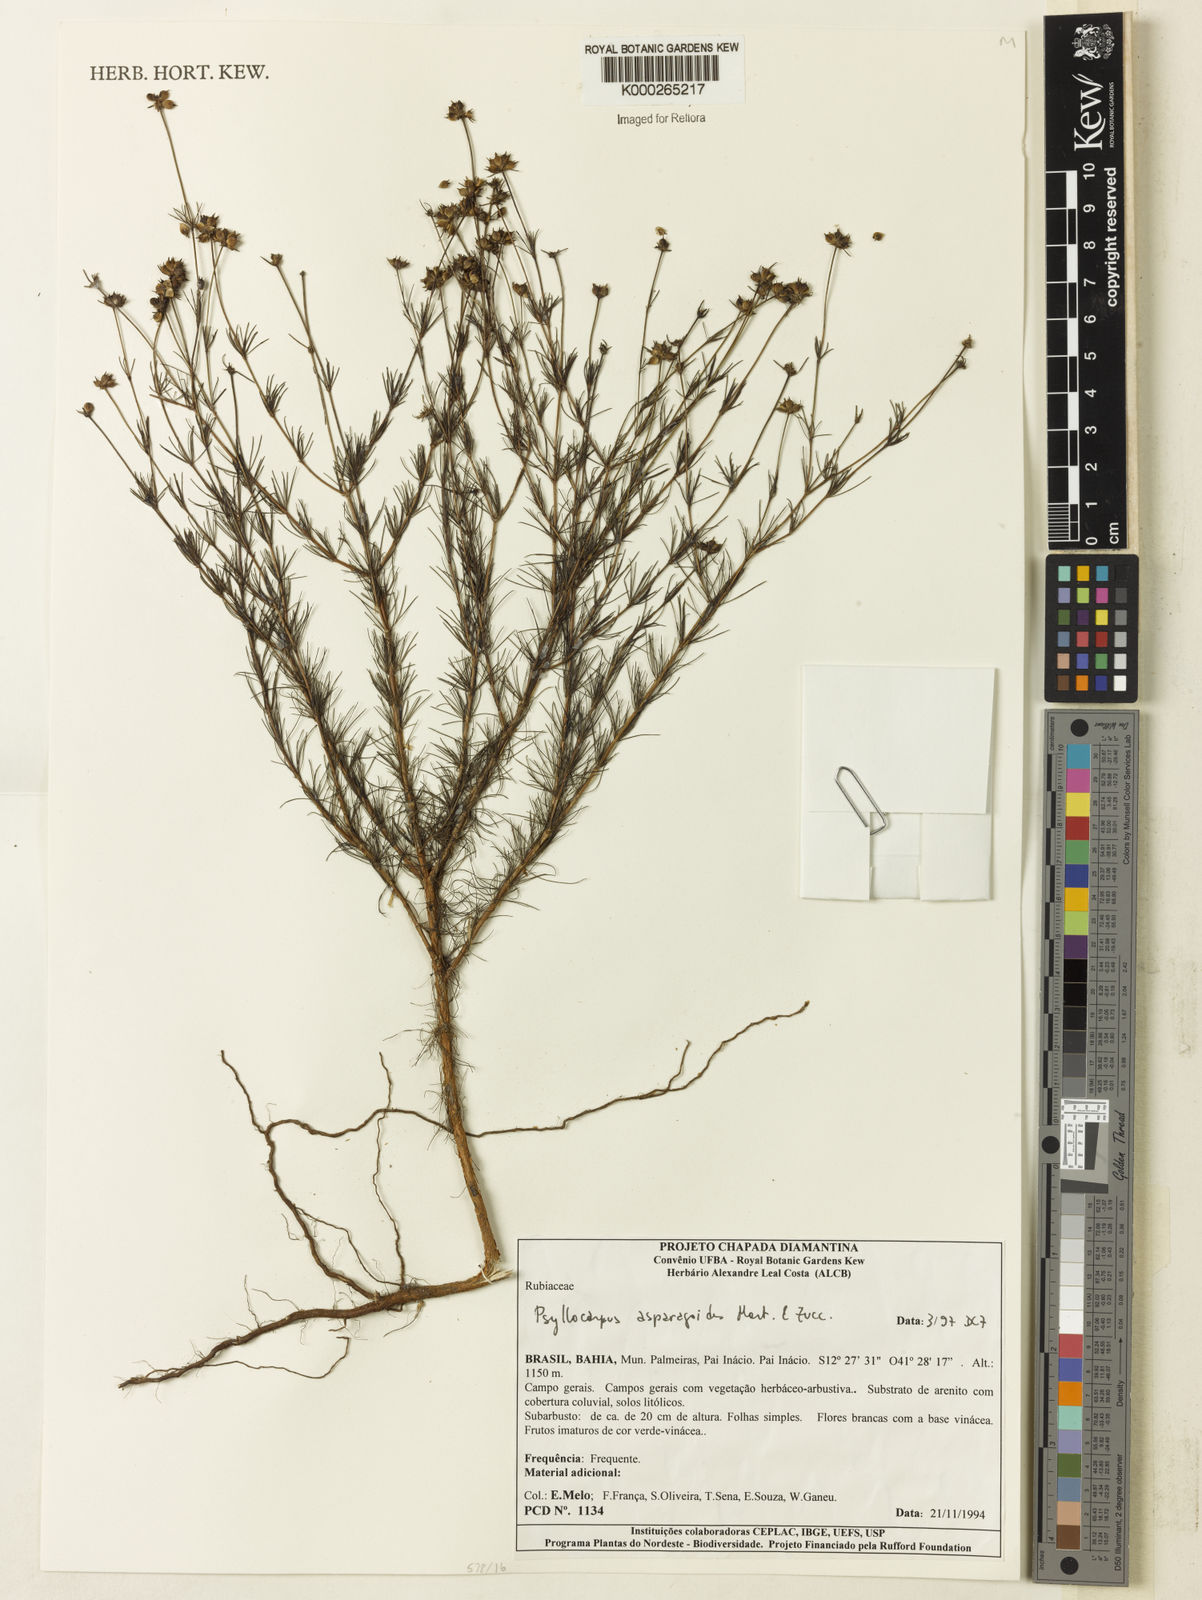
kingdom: Plantae
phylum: Tracheophyta
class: Magnoliopsida
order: Gentianales
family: Rubiaceae
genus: Psyllocarpus
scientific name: Psyllocarpus asparagoides
